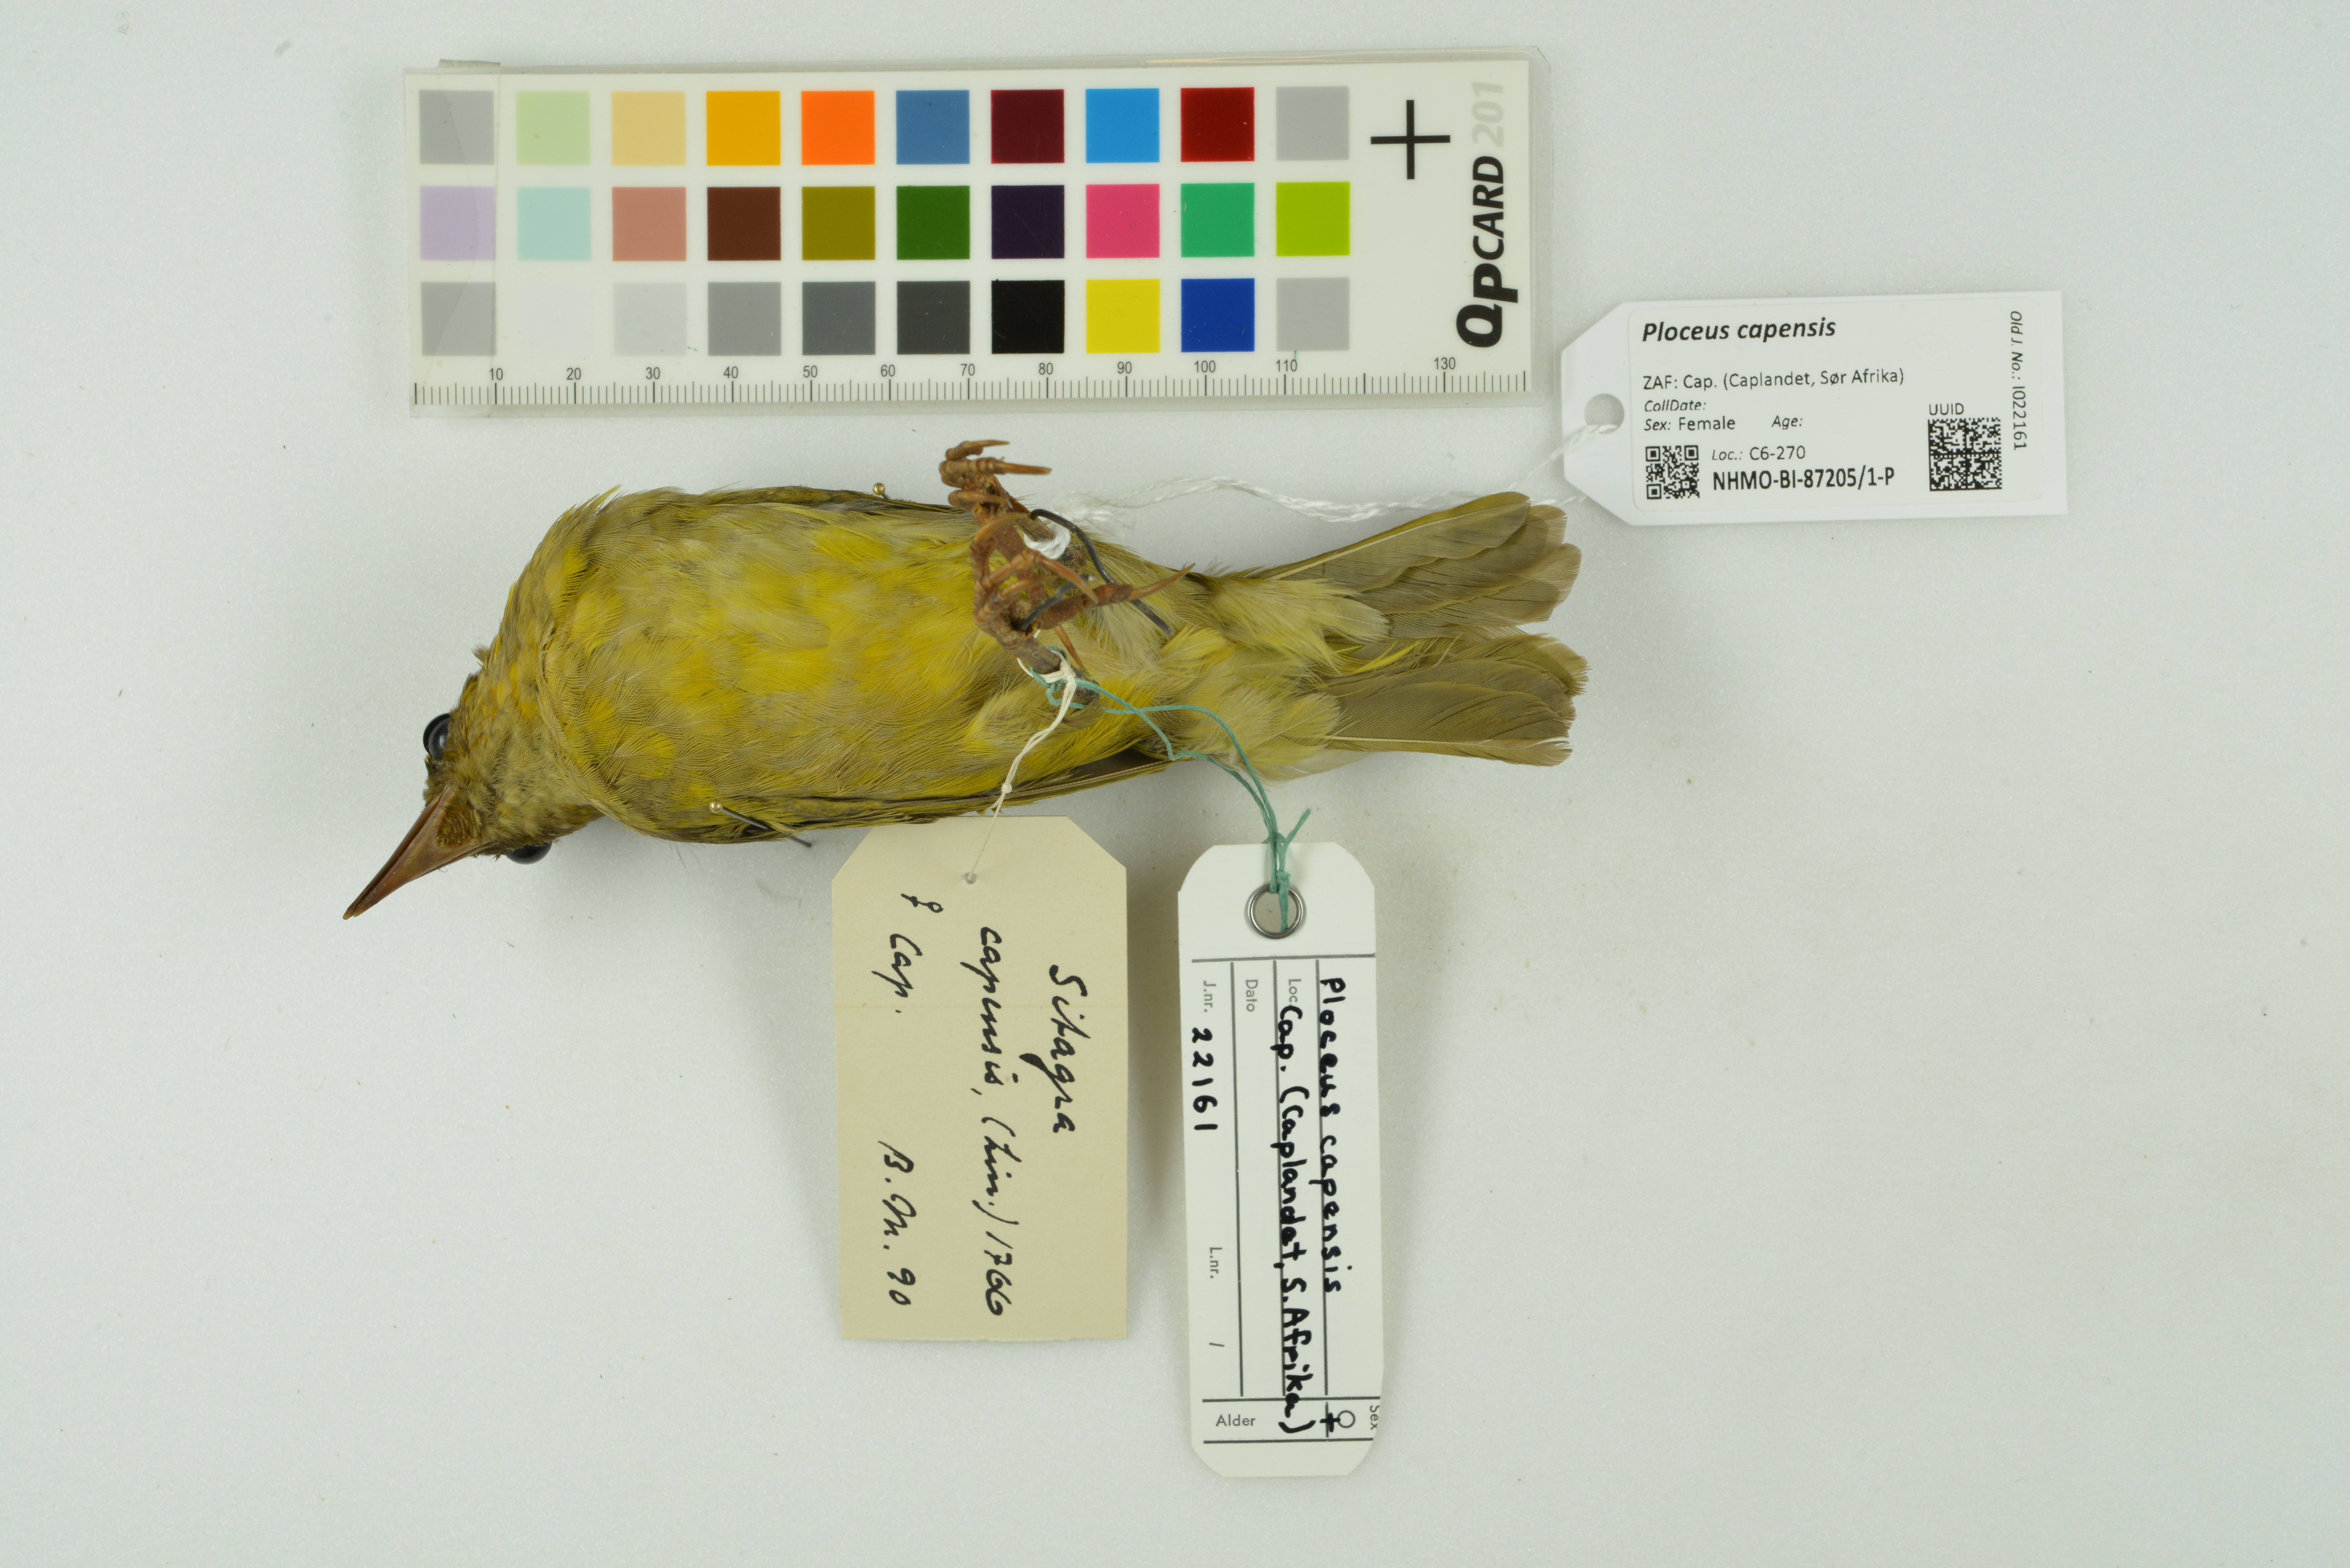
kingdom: Animalia
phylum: Chordata
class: Aves
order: Passeriformes
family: Ploceidae
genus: Ploceus
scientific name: Ploceus capensis
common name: Cape weaver
